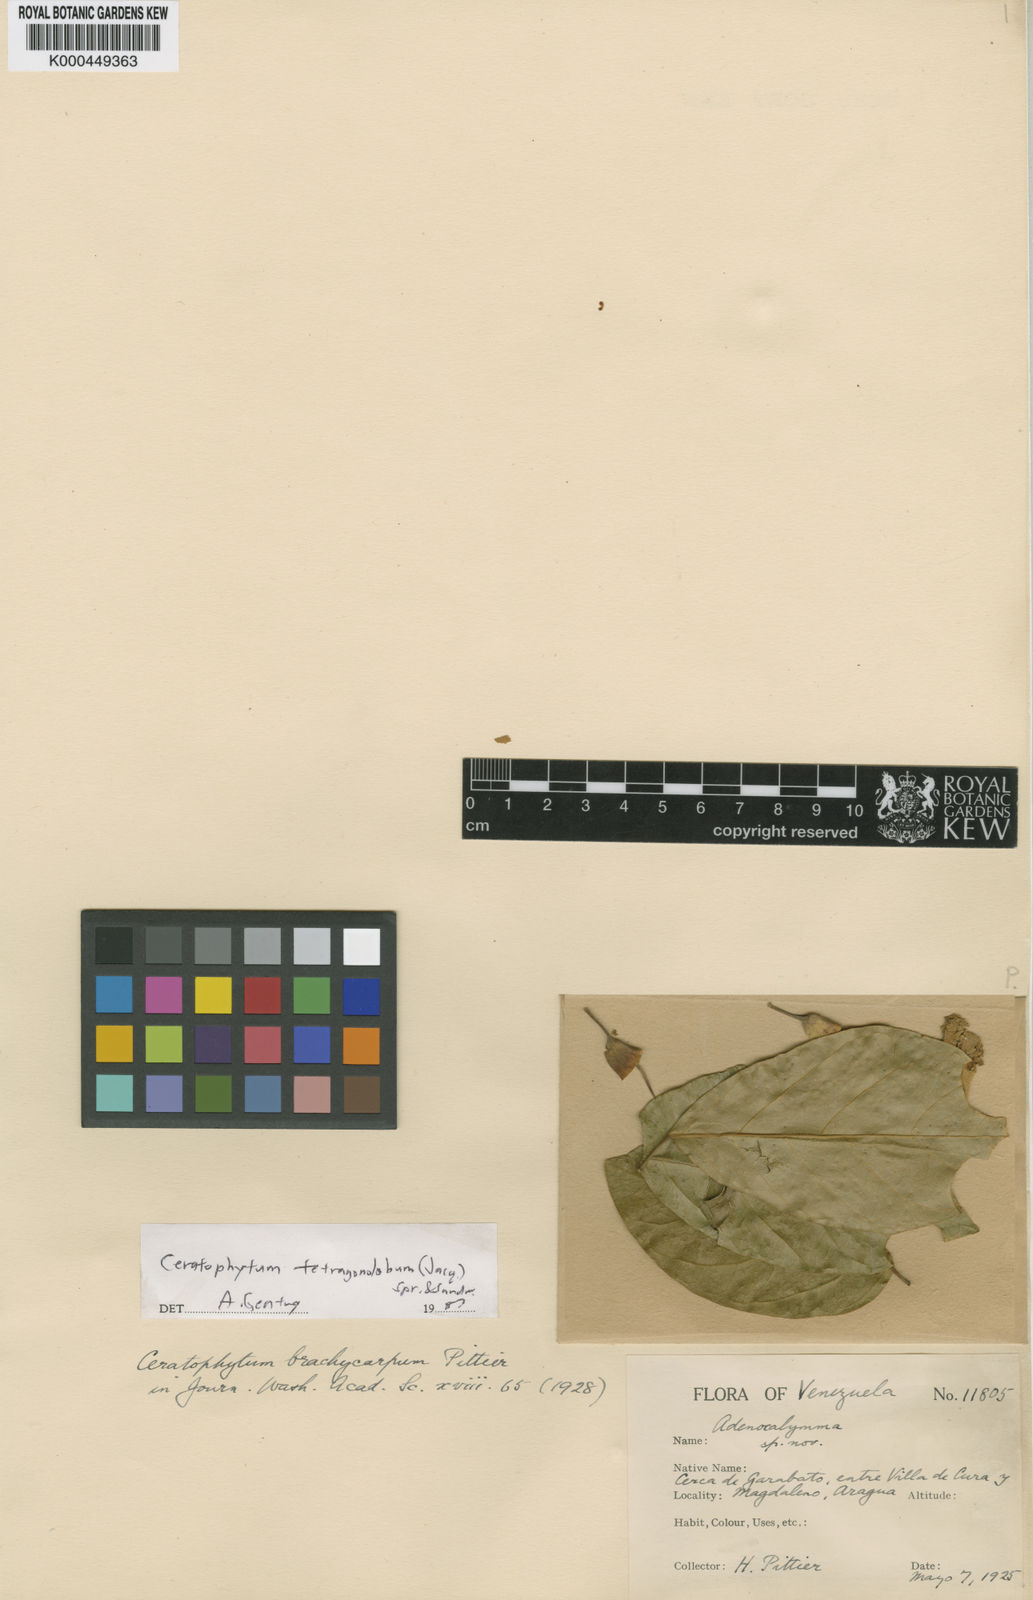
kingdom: Plantae
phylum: Tracheophyta
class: Magnoliopsida
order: Lamiales
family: Bignoniaceae
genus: Tanaecium
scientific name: Tanaecium tetragonolobum
